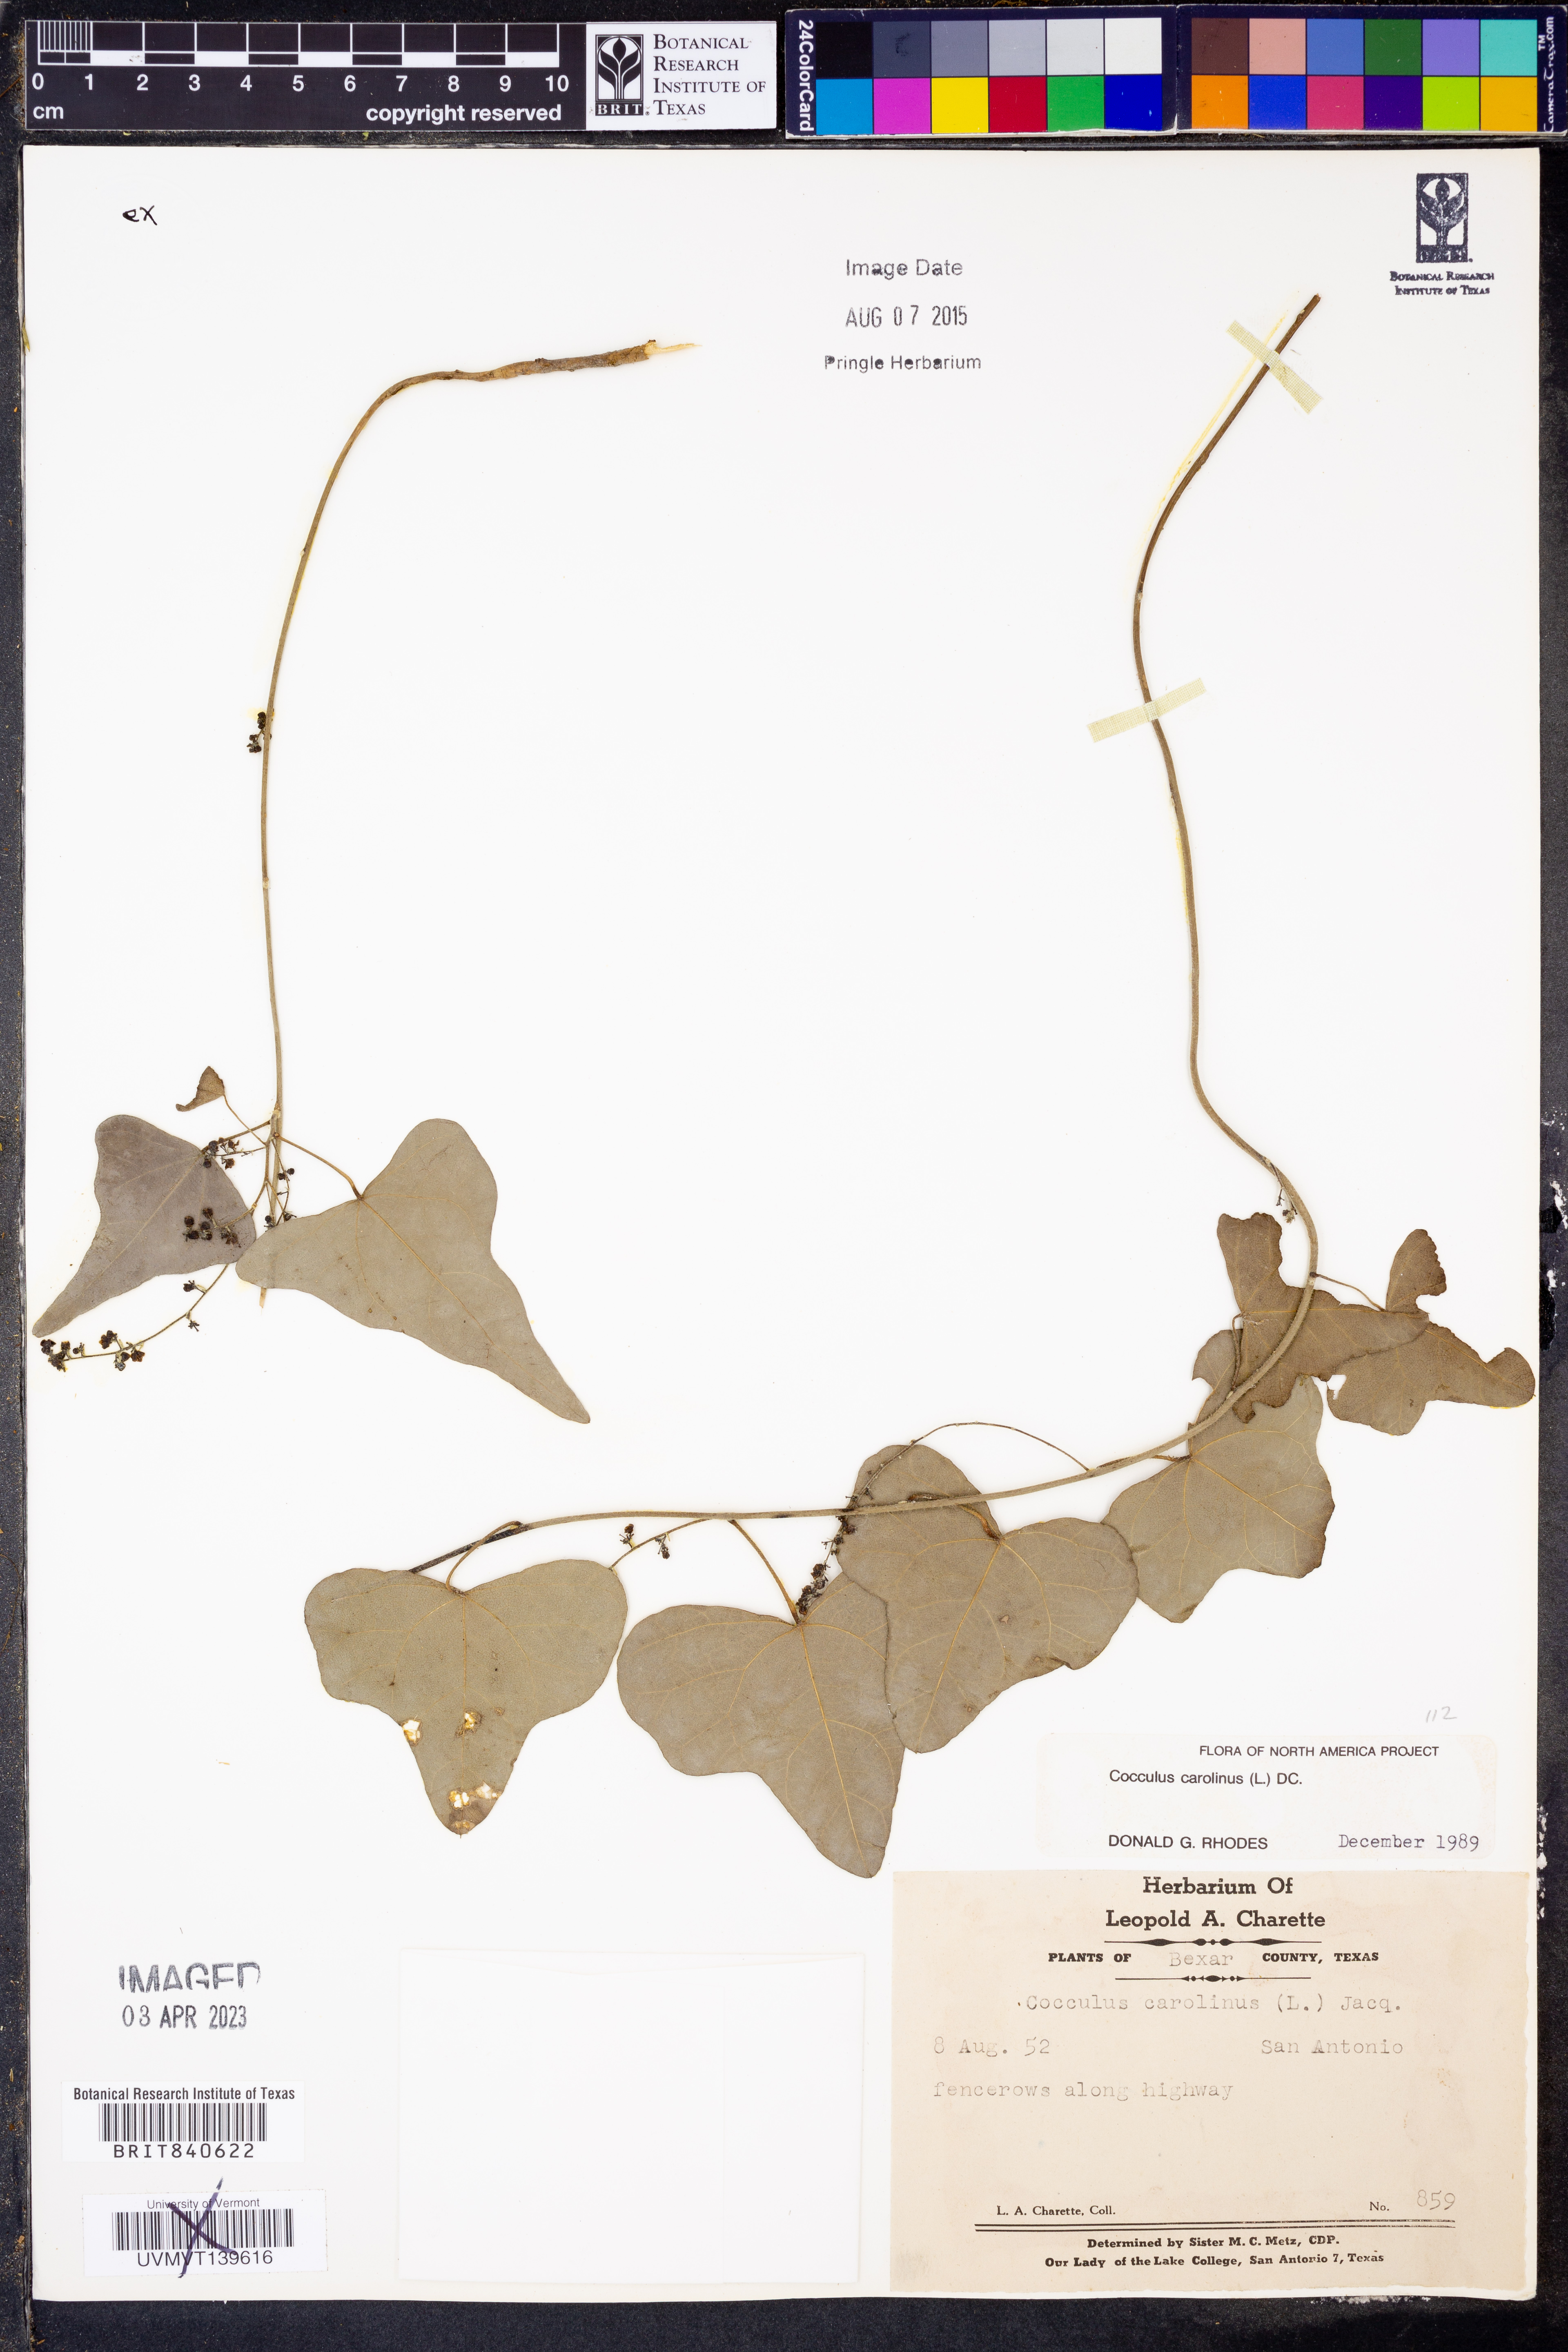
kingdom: Plantae
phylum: Tracheophyta
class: Magnoliopsida
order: Ranunculales
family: Menispermaceae
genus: Cocculus
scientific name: Cocculus carolinus
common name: Carolina moonseed
